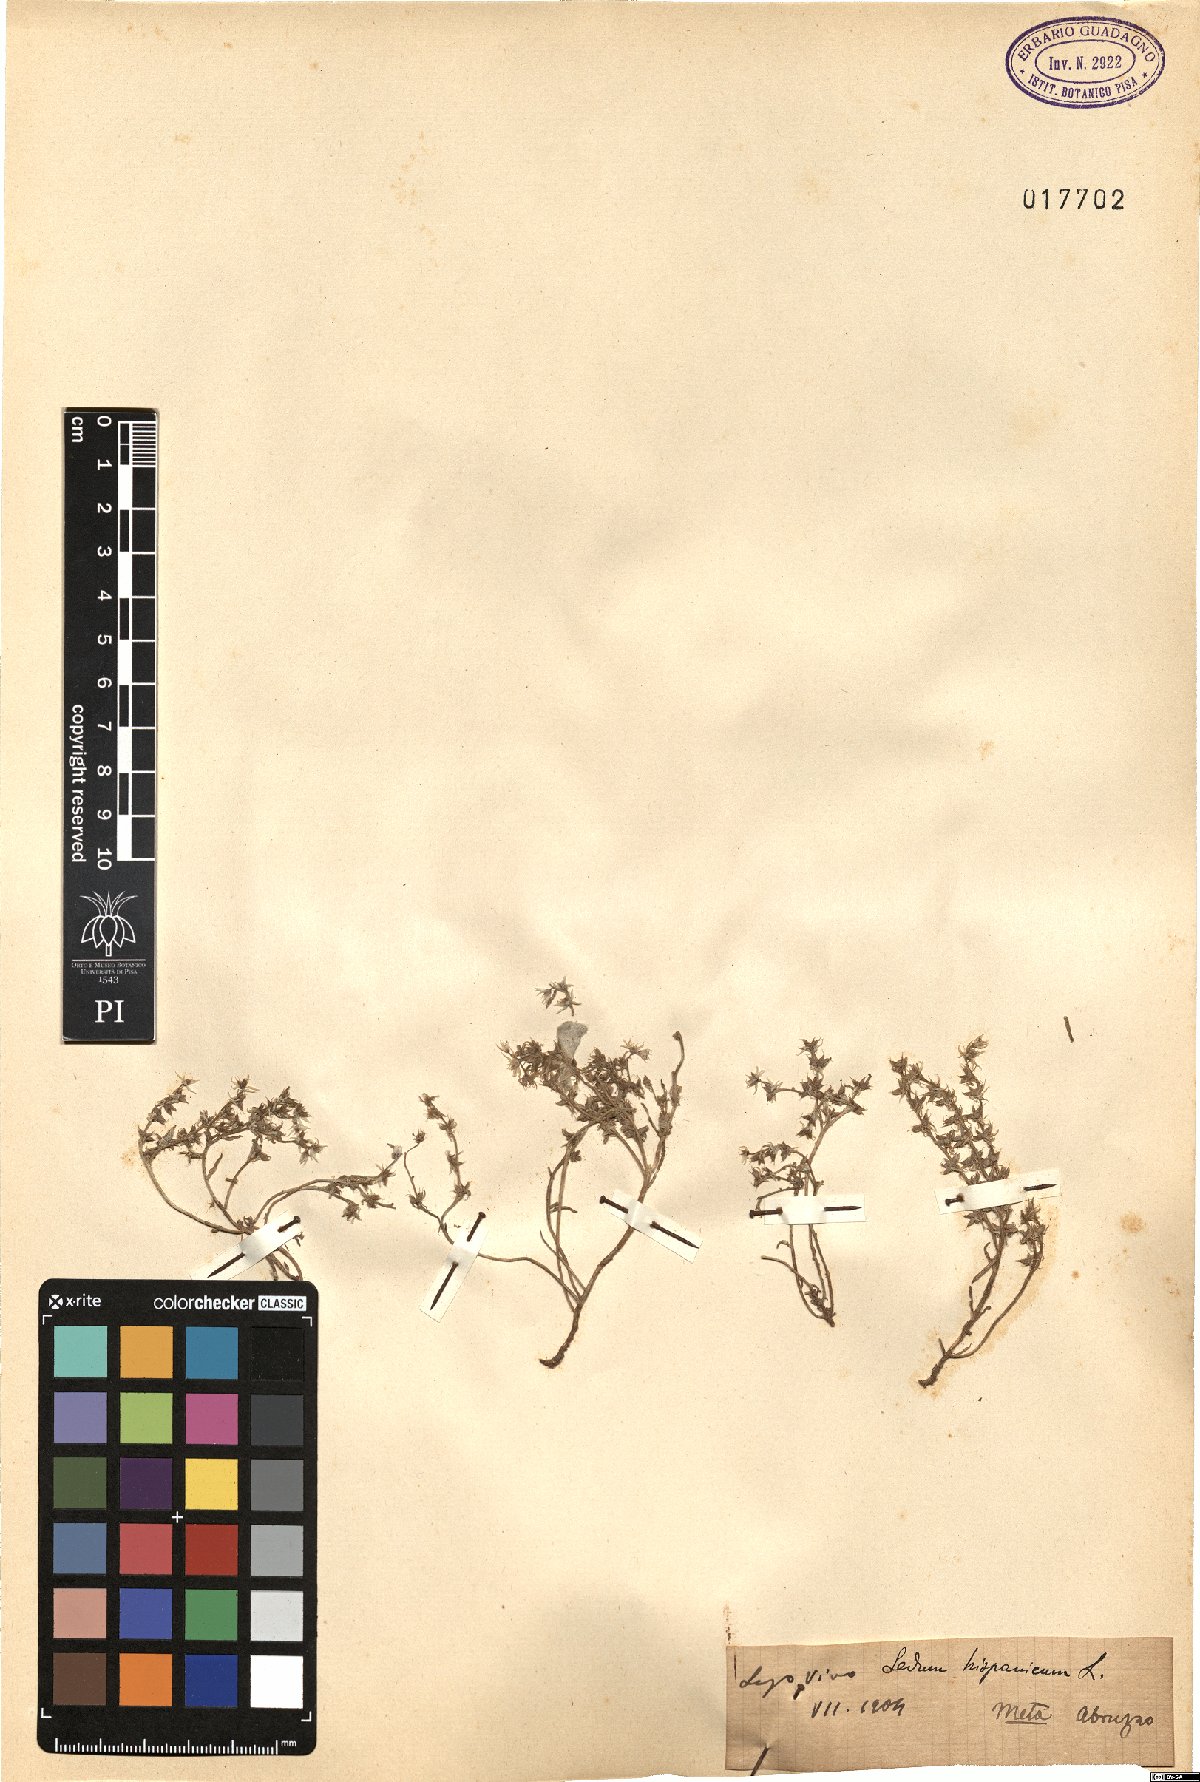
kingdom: Plantae
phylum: Tracheophyta
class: Magnoliopsida
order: Saxifragales
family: Crassulaceae
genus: Sedum
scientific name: Sedum hispanicum
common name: Spanish stonecrop
